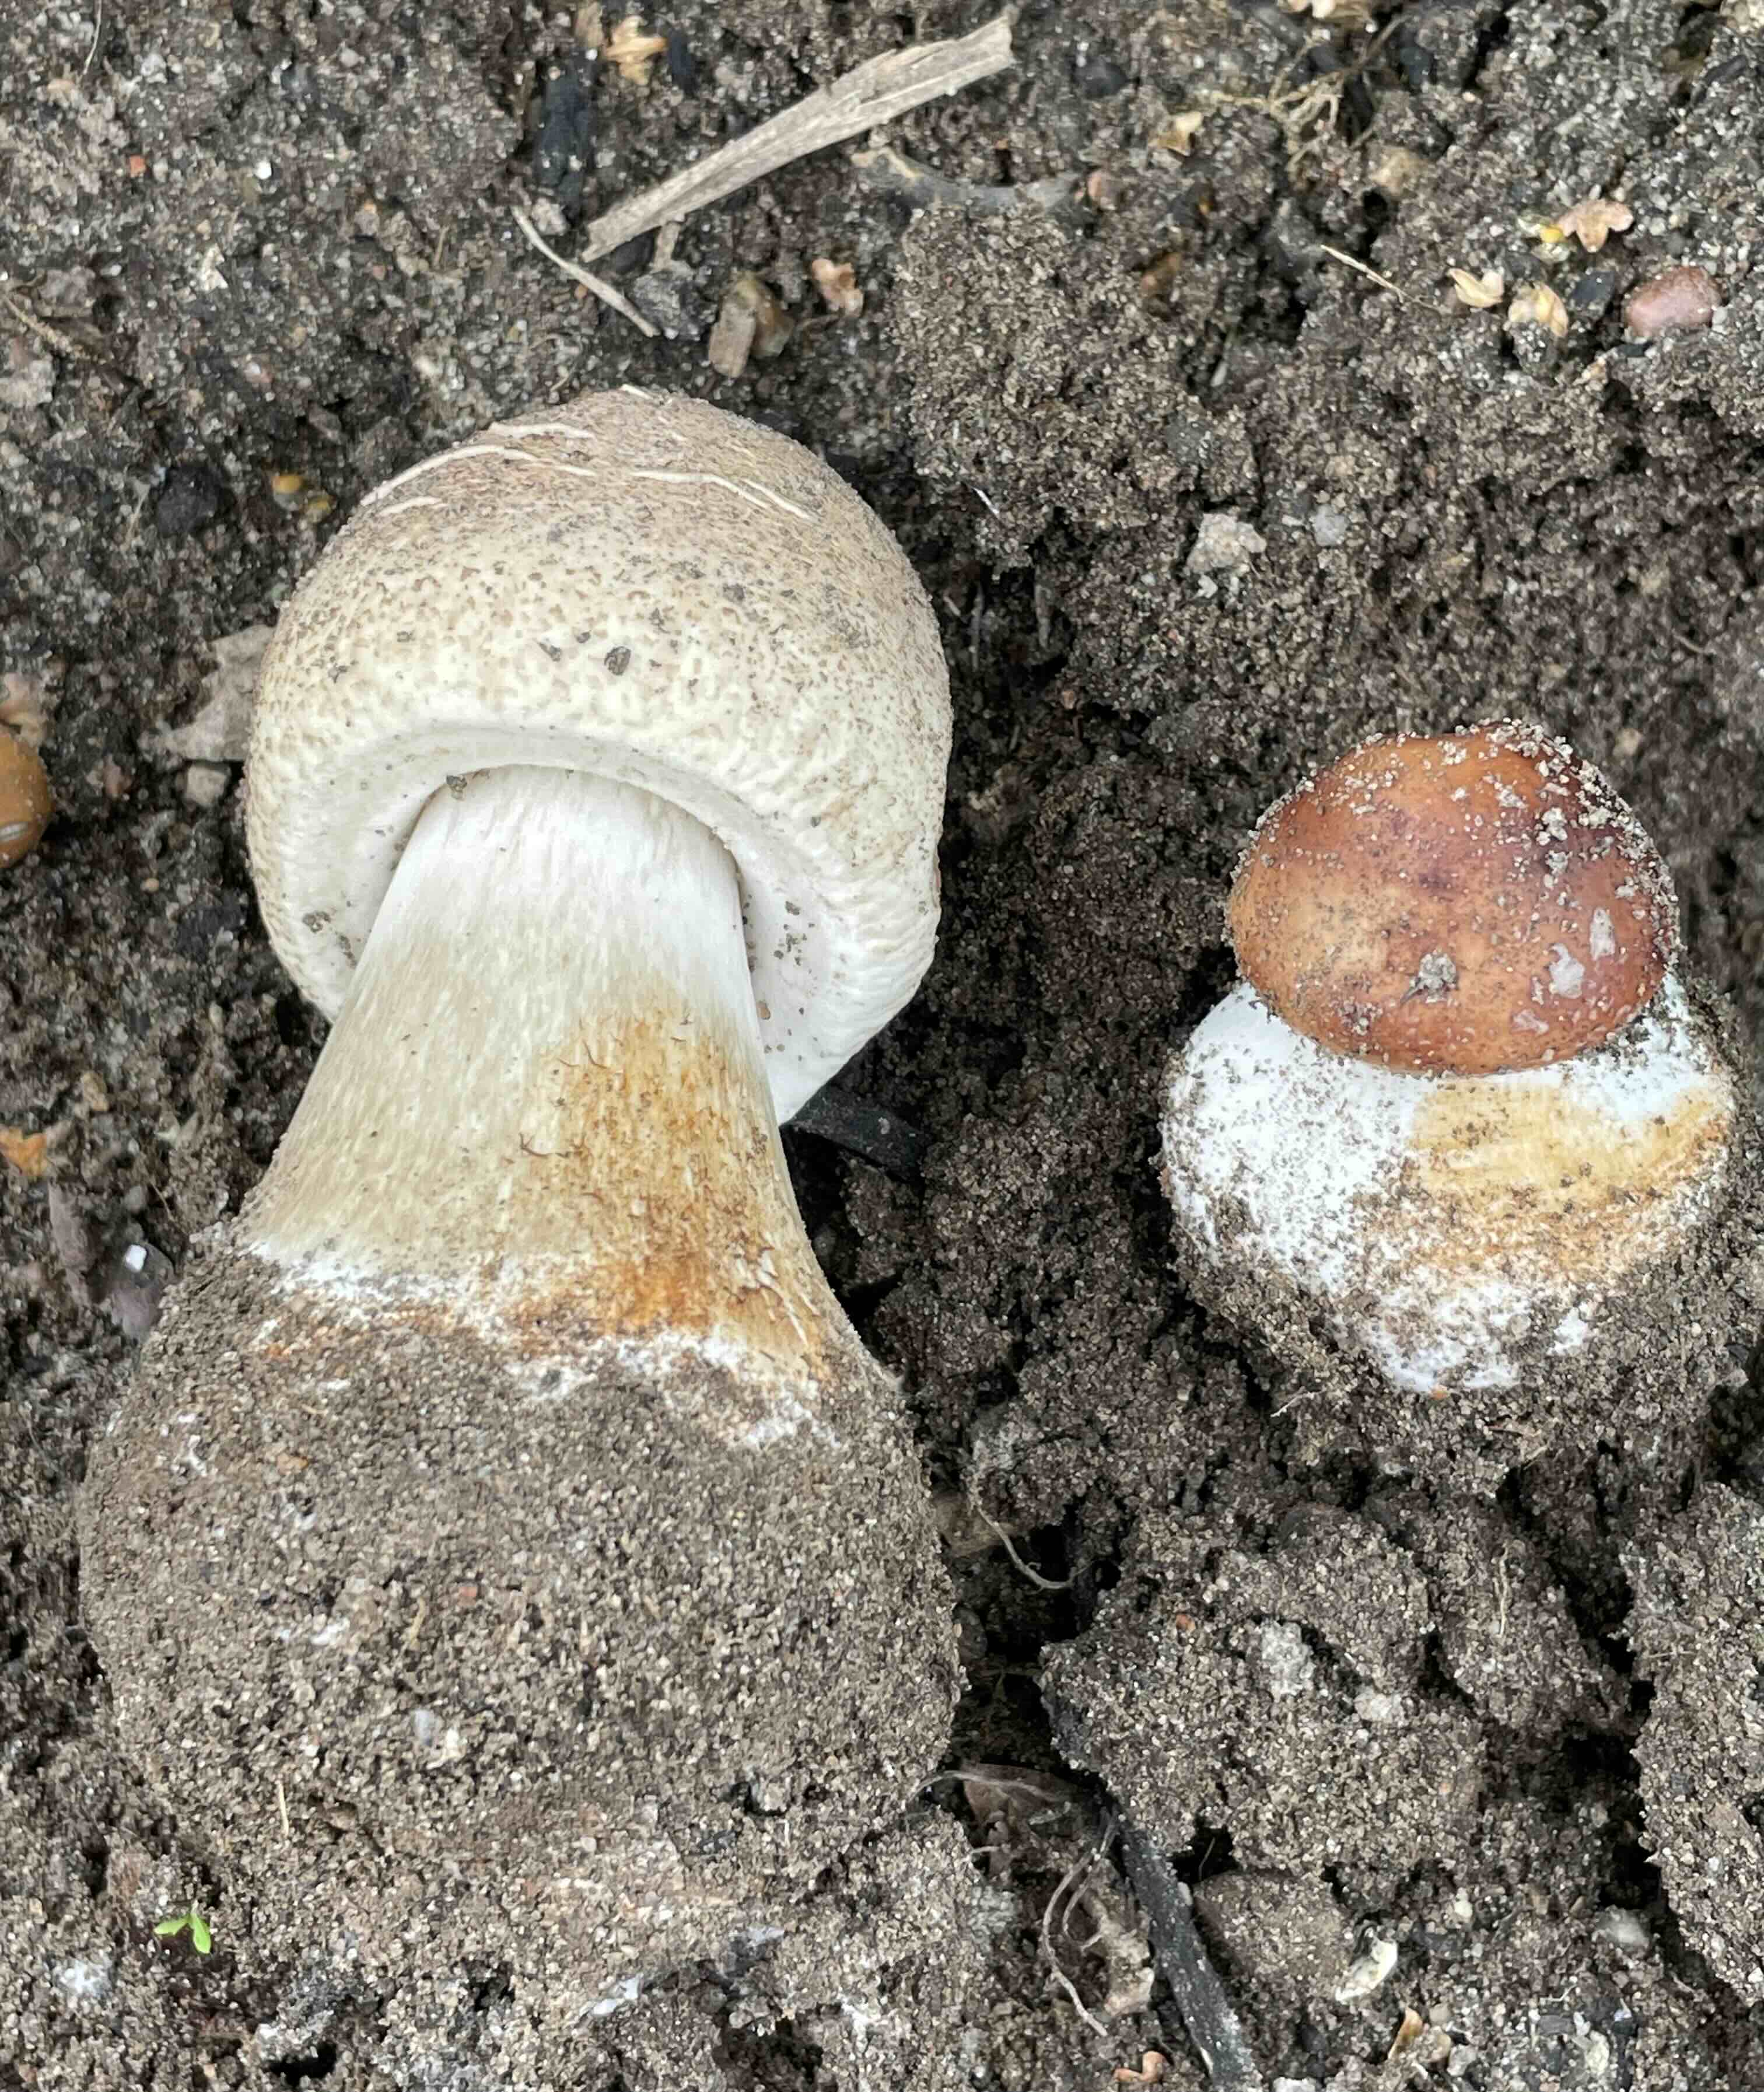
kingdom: Fungi
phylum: Basidiomycota
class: Agaricomycetes
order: Agaricales
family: Agaricaceae
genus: Chlorophyllum
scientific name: Chlorophyllum
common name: rabarberhat
